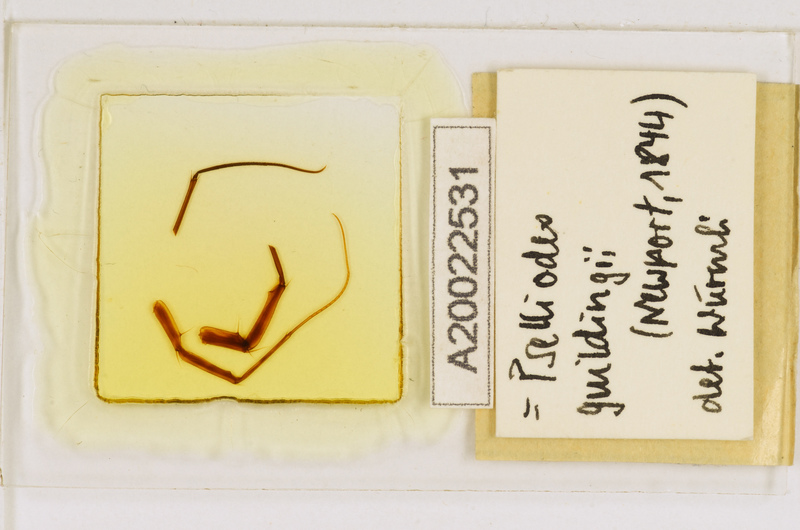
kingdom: Animalia
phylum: Arthropoda
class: Chilopoda
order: Scutigeromorpha
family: Pselliodidae
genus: Sphendononema
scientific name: Sphendononema guildingii
